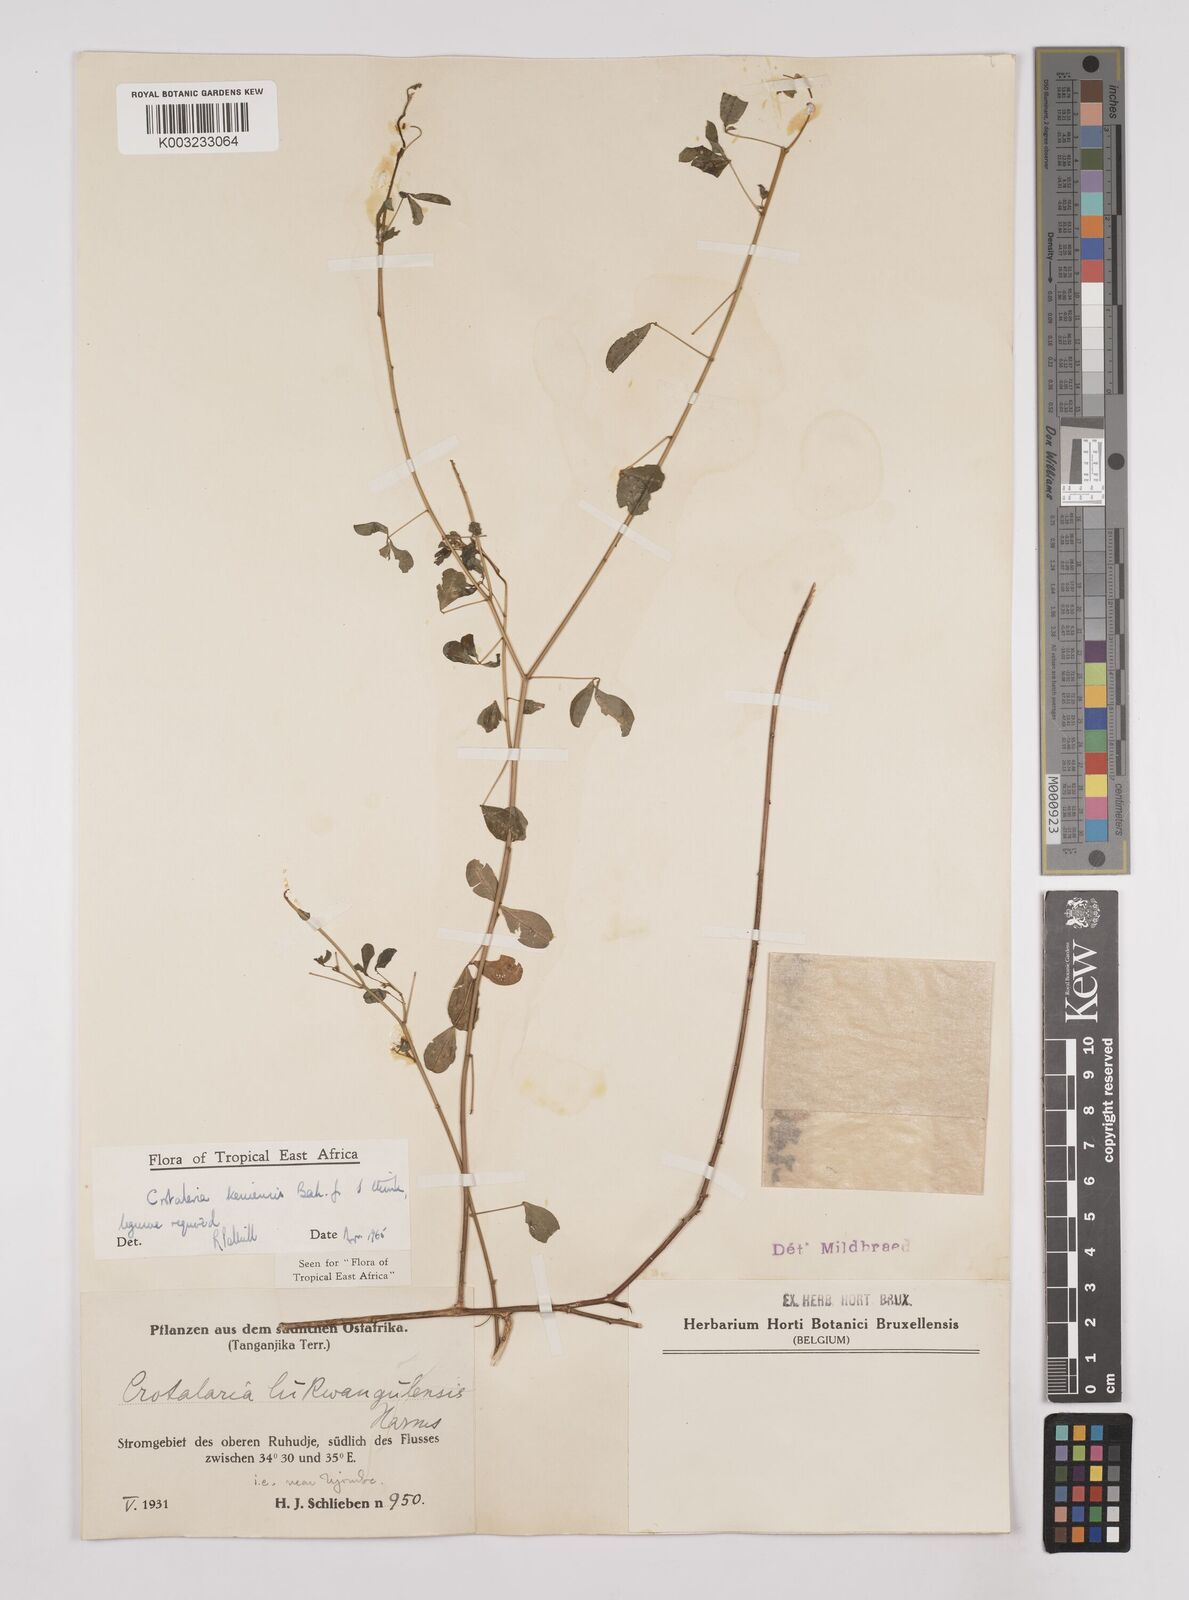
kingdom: Plantae
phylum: Tracheophyta
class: Magnoliopsida
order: Fabales
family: Fabaceae
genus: Crotalaria
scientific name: Crotalaria keniensis
